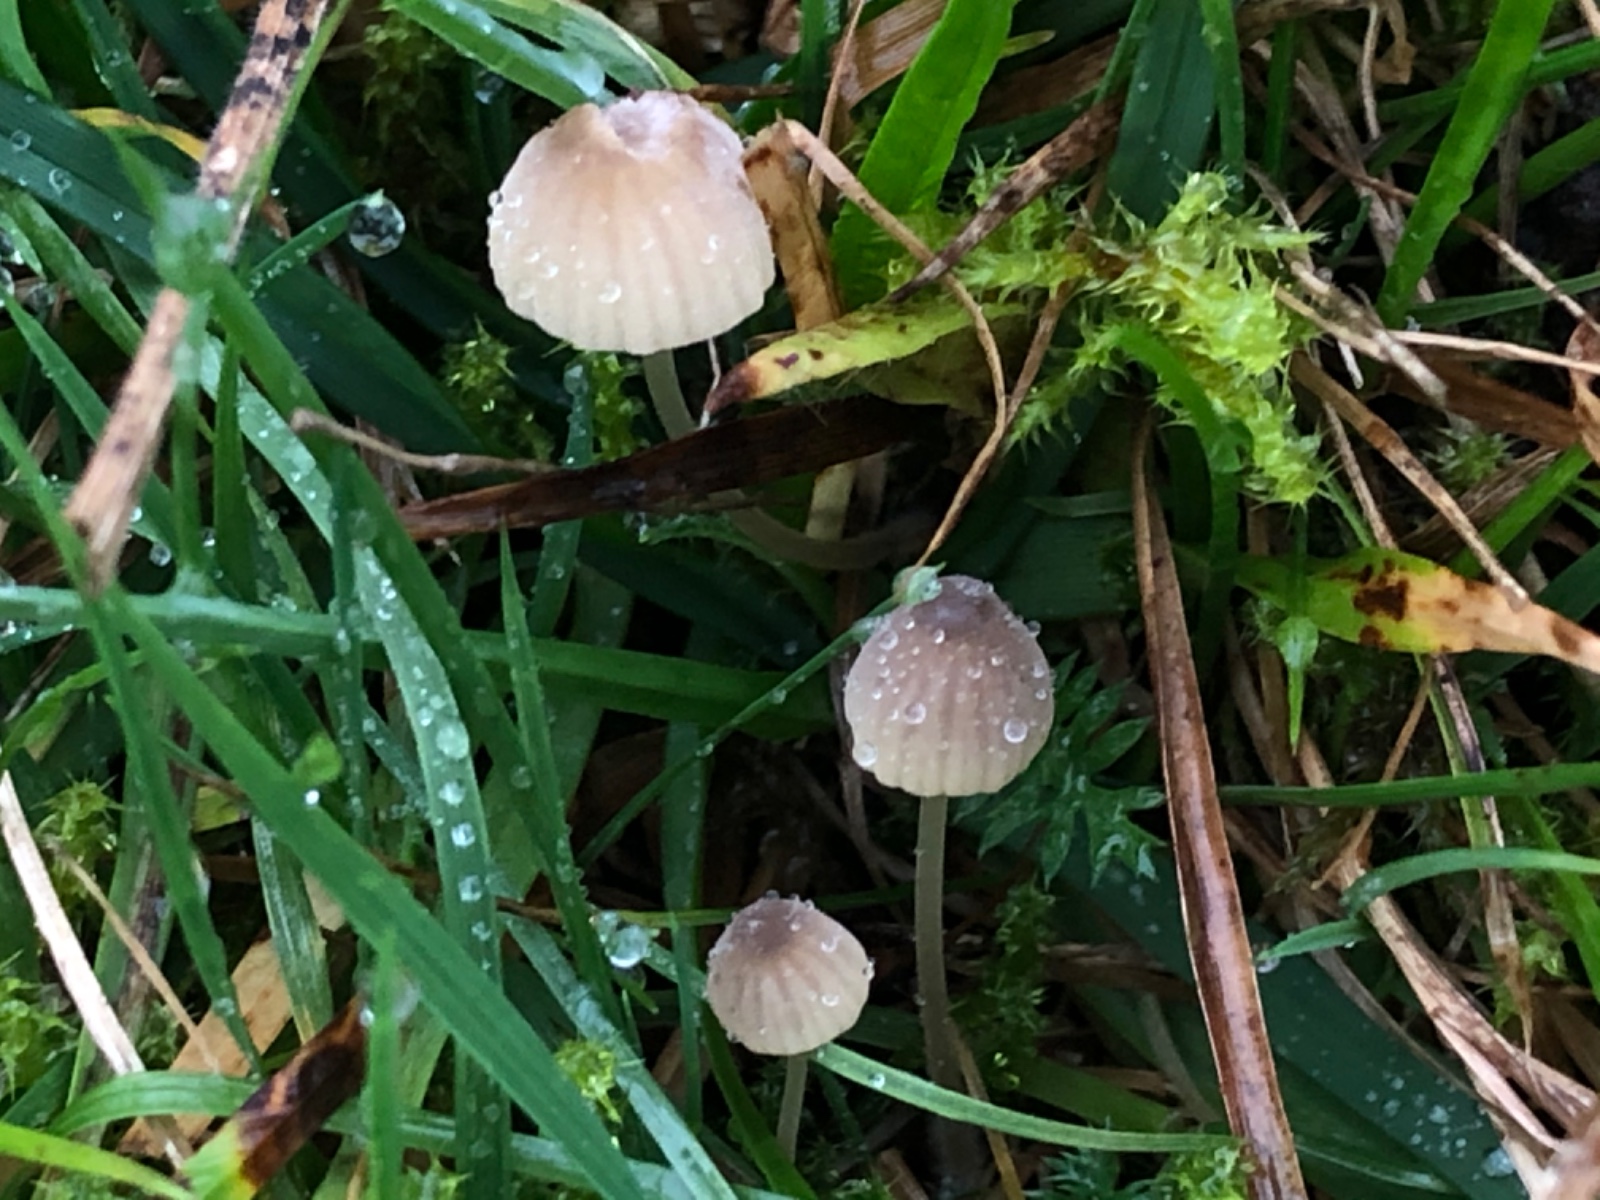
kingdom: Fungi
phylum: Basidiomycota
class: Agaricomycetes
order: Agaricales
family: Mycenaceae
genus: Mycena
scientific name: Mycena olivaceomarginata
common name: brunægget huesvamp
